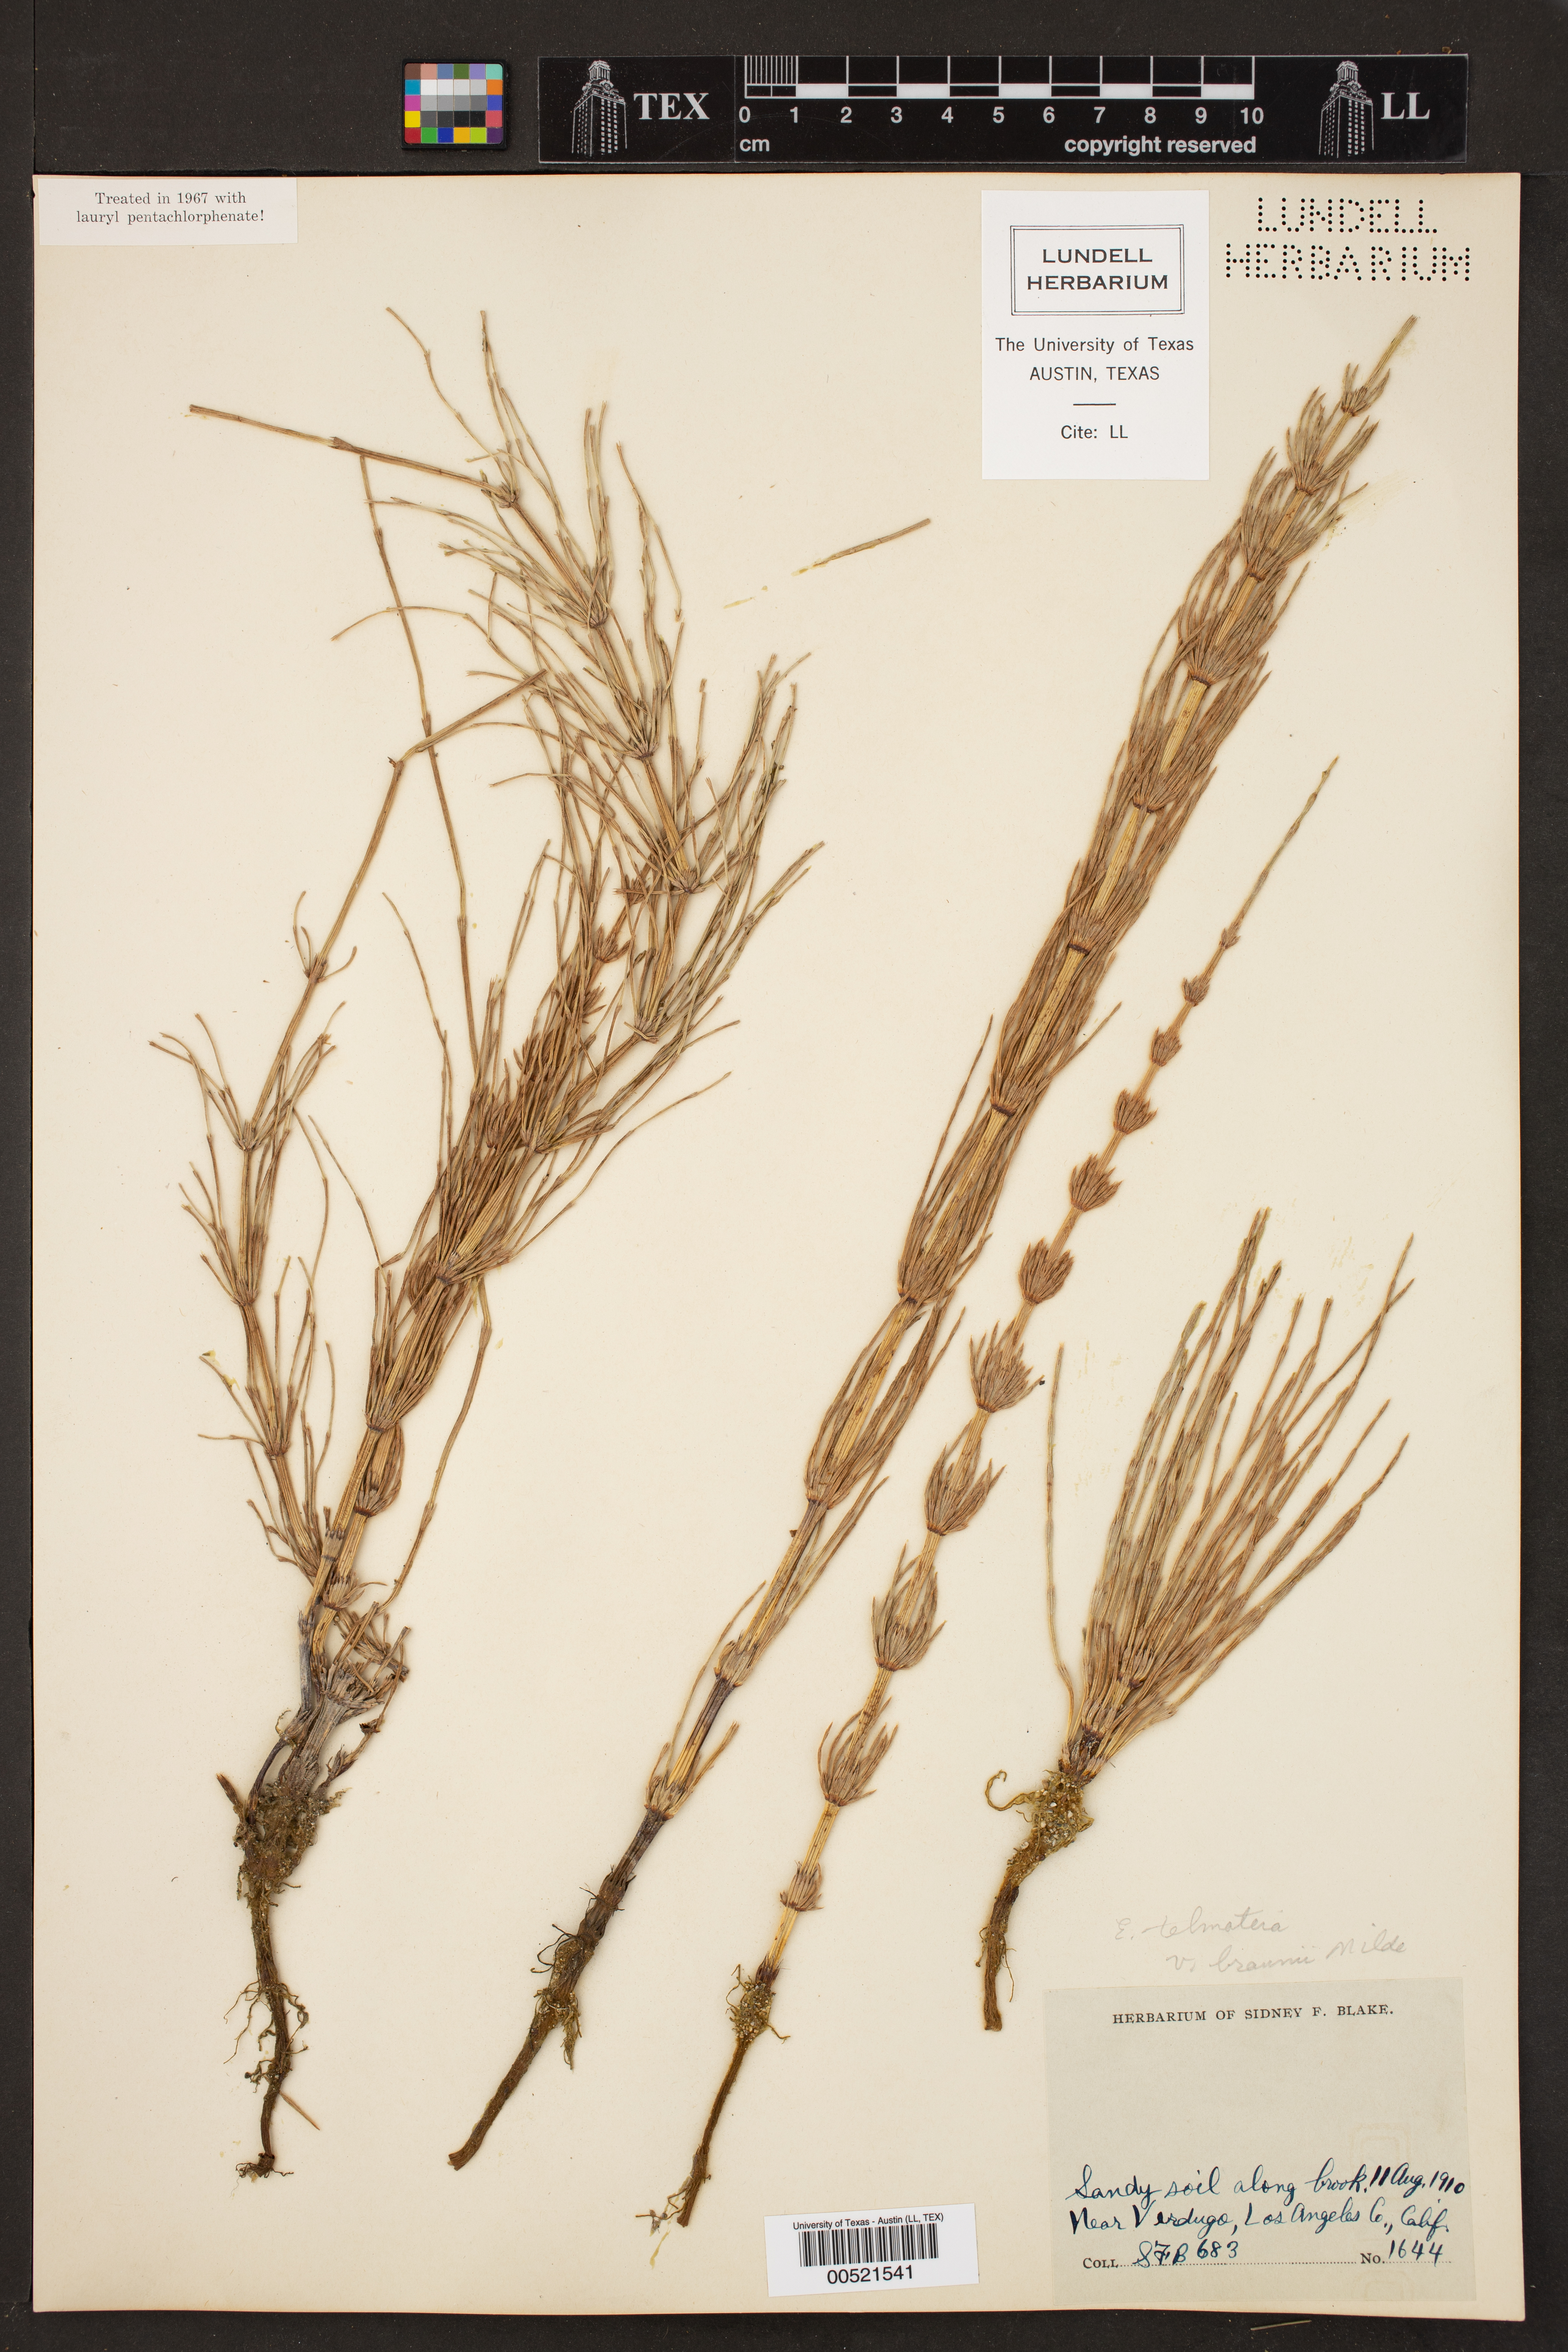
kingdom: Plantae
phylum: Tracheophyta
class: Polypodiopsida
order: Equisetales
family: Equisetaceae
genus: Equisetum
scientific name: Equisetum braunii
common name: Braun's horsetail
